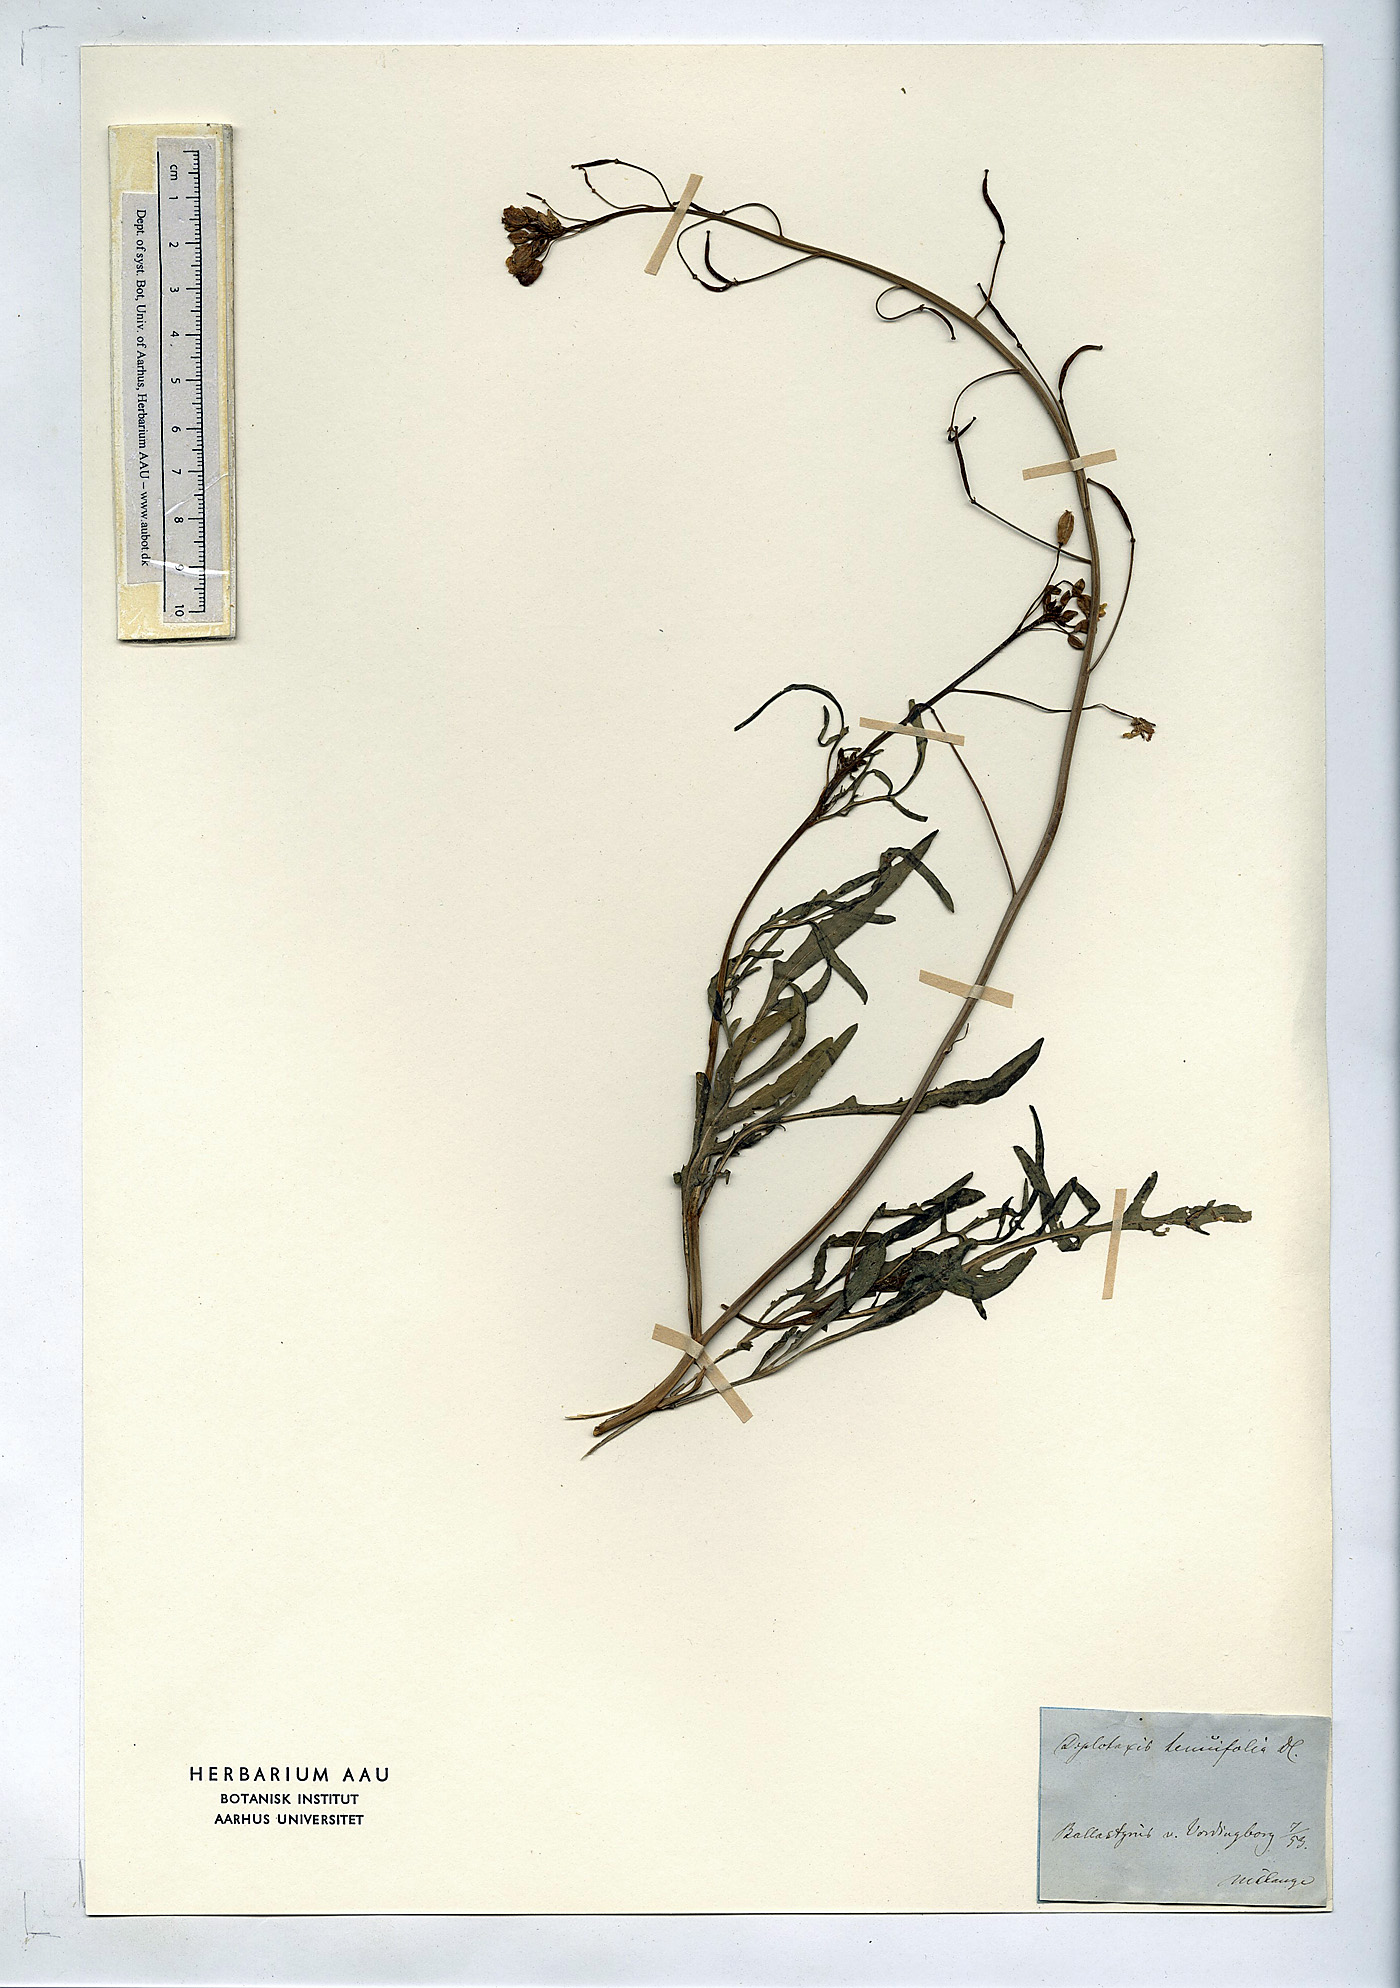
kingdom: Plantae
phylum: Tracheophyta
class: Magnoliopsida
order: Brassicales
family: Brassicaceae
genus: Diplotaxis
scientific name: Diplotaxis tenuifolia
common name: Perennial wall-rocket
